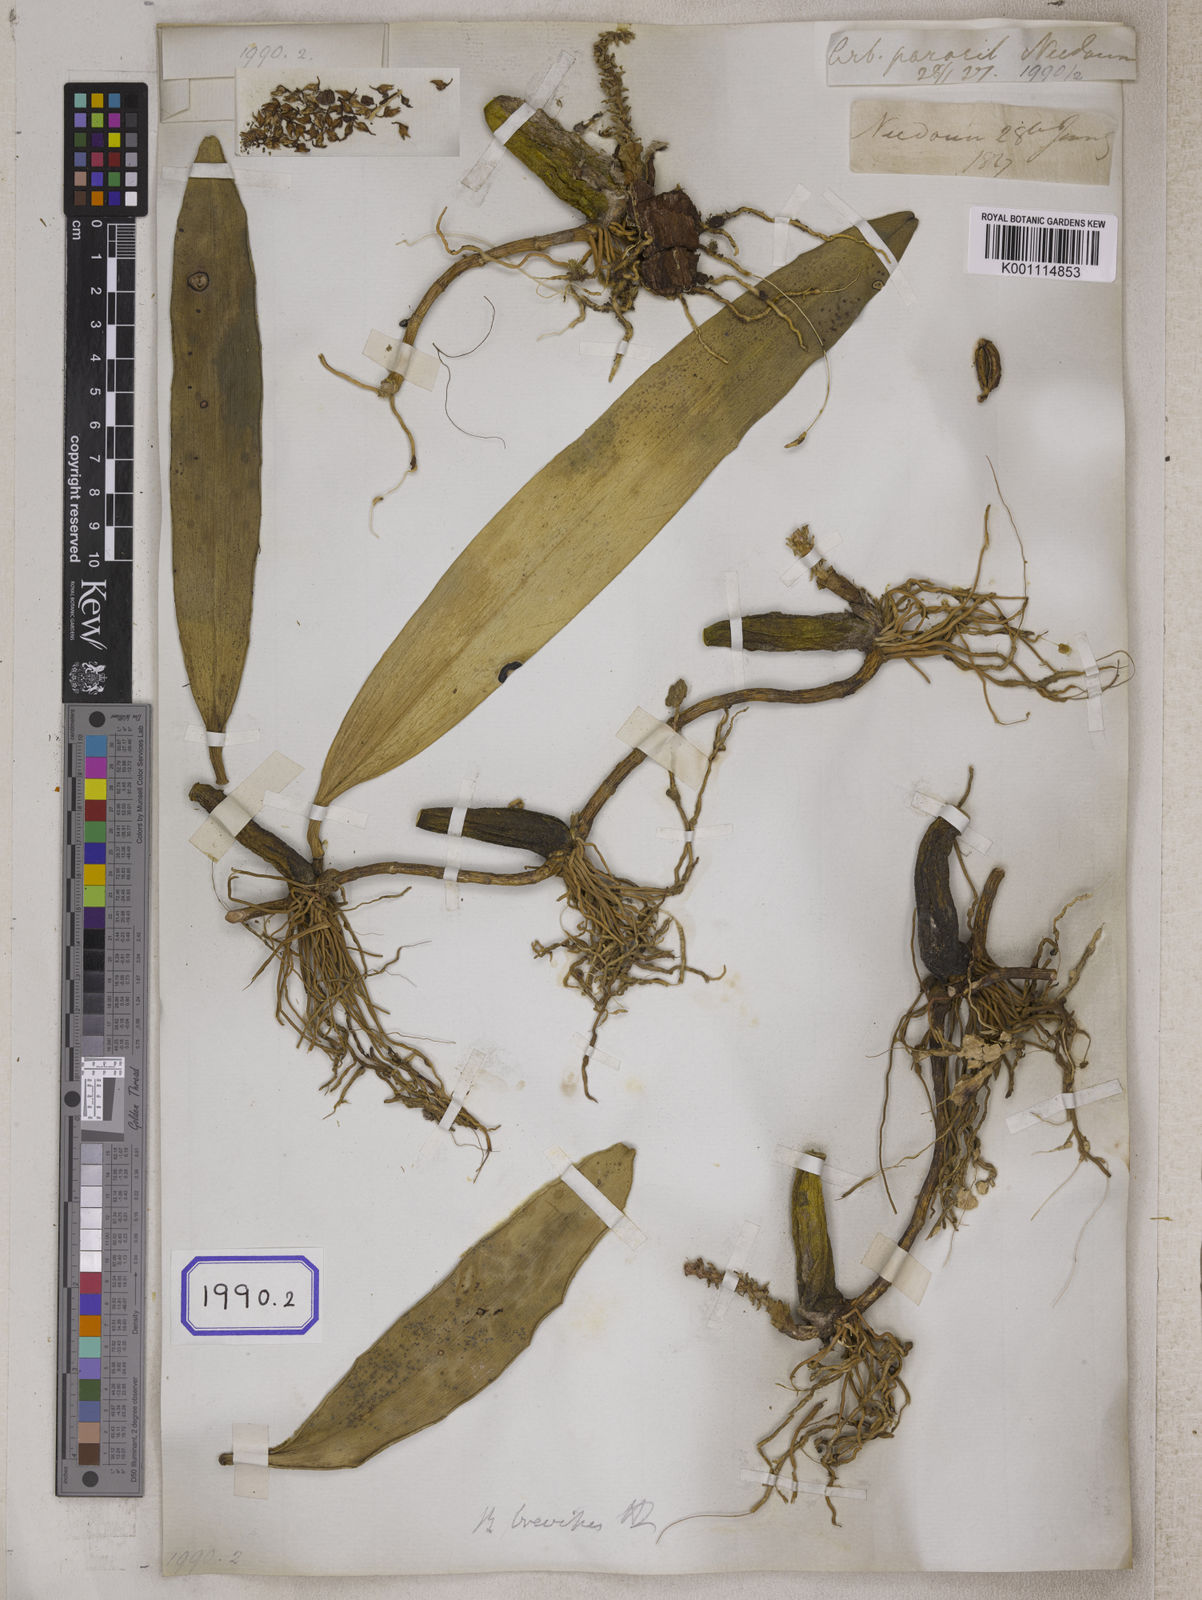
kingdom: Plantae
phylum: Tracheophyta
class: Liliopsida
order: Asparagales
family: Orchidaceae
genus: Bulbophyllum
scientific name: Bulbophyllum
